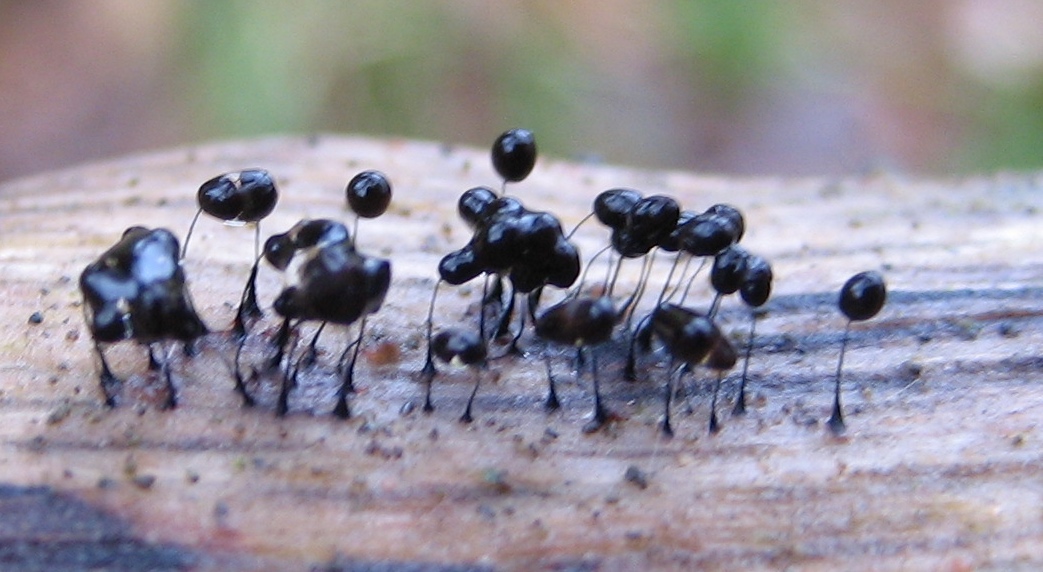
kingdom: Protozoa
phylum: Mycetozoa
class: Myxomycetes
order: Stemonitidales
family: Stemonitidaceae
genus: Comatricha
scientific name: Comatricha
